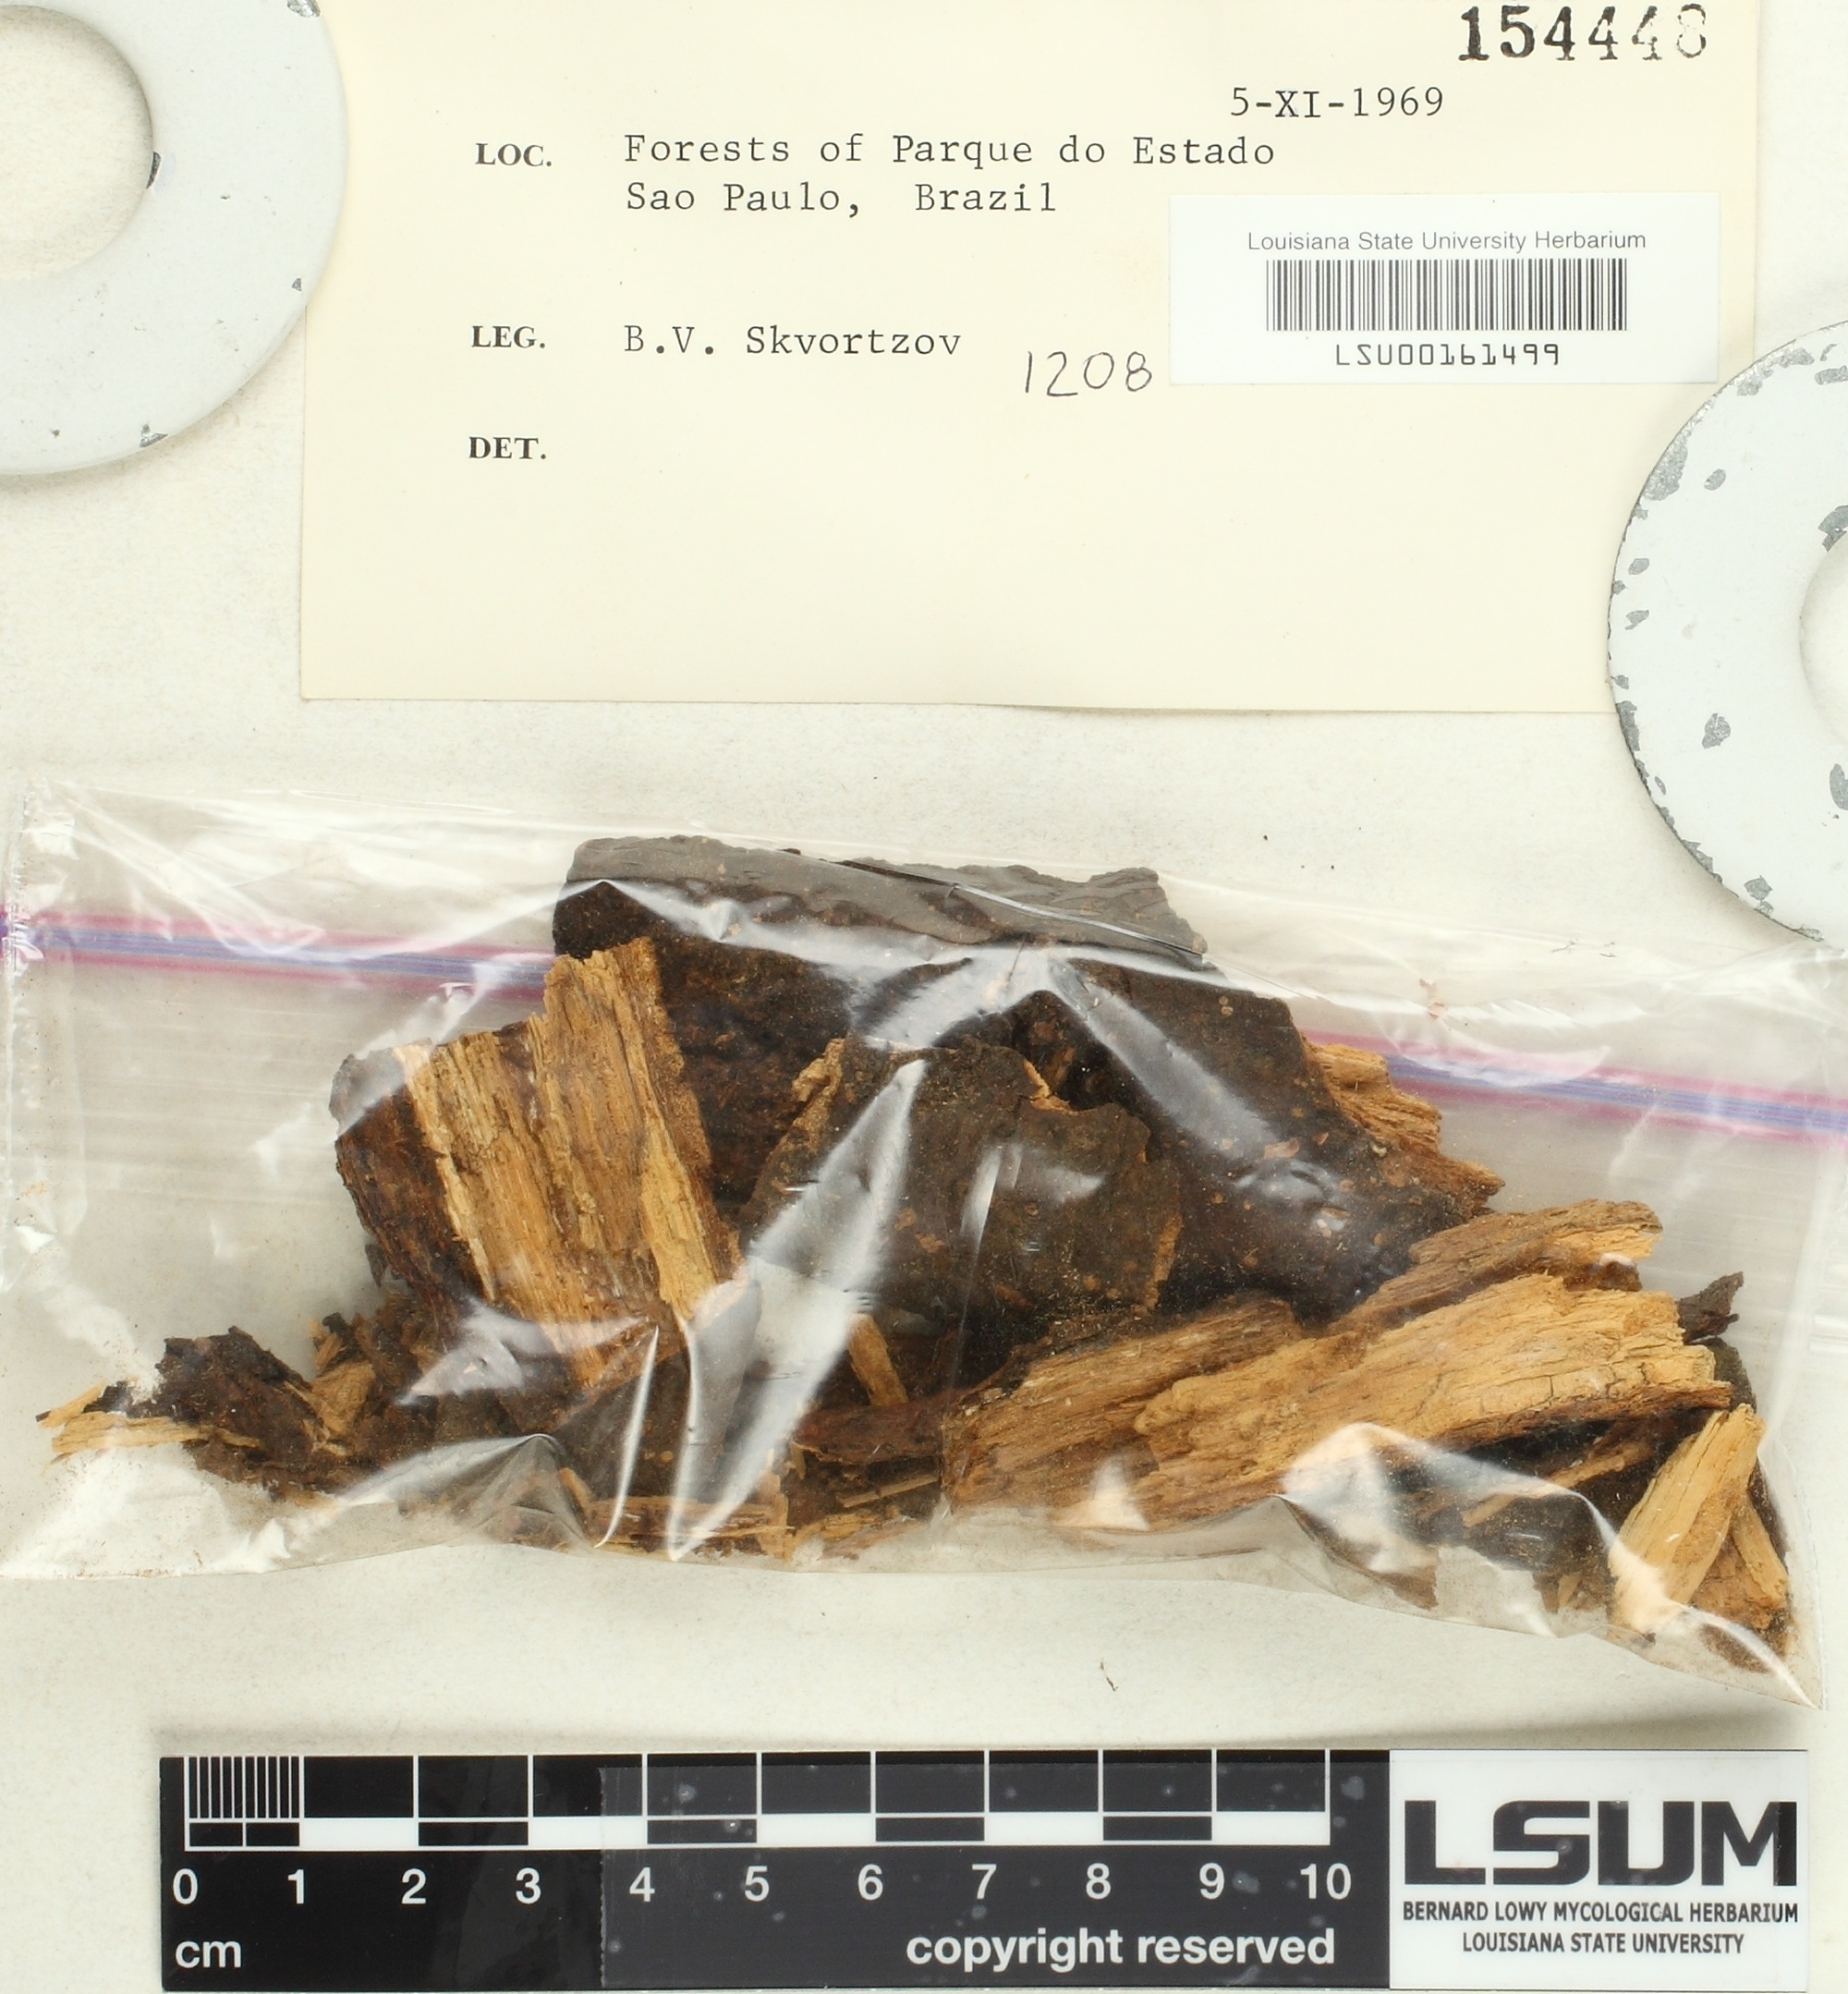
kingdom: Fungi
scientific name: Fungi
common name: Fungi
